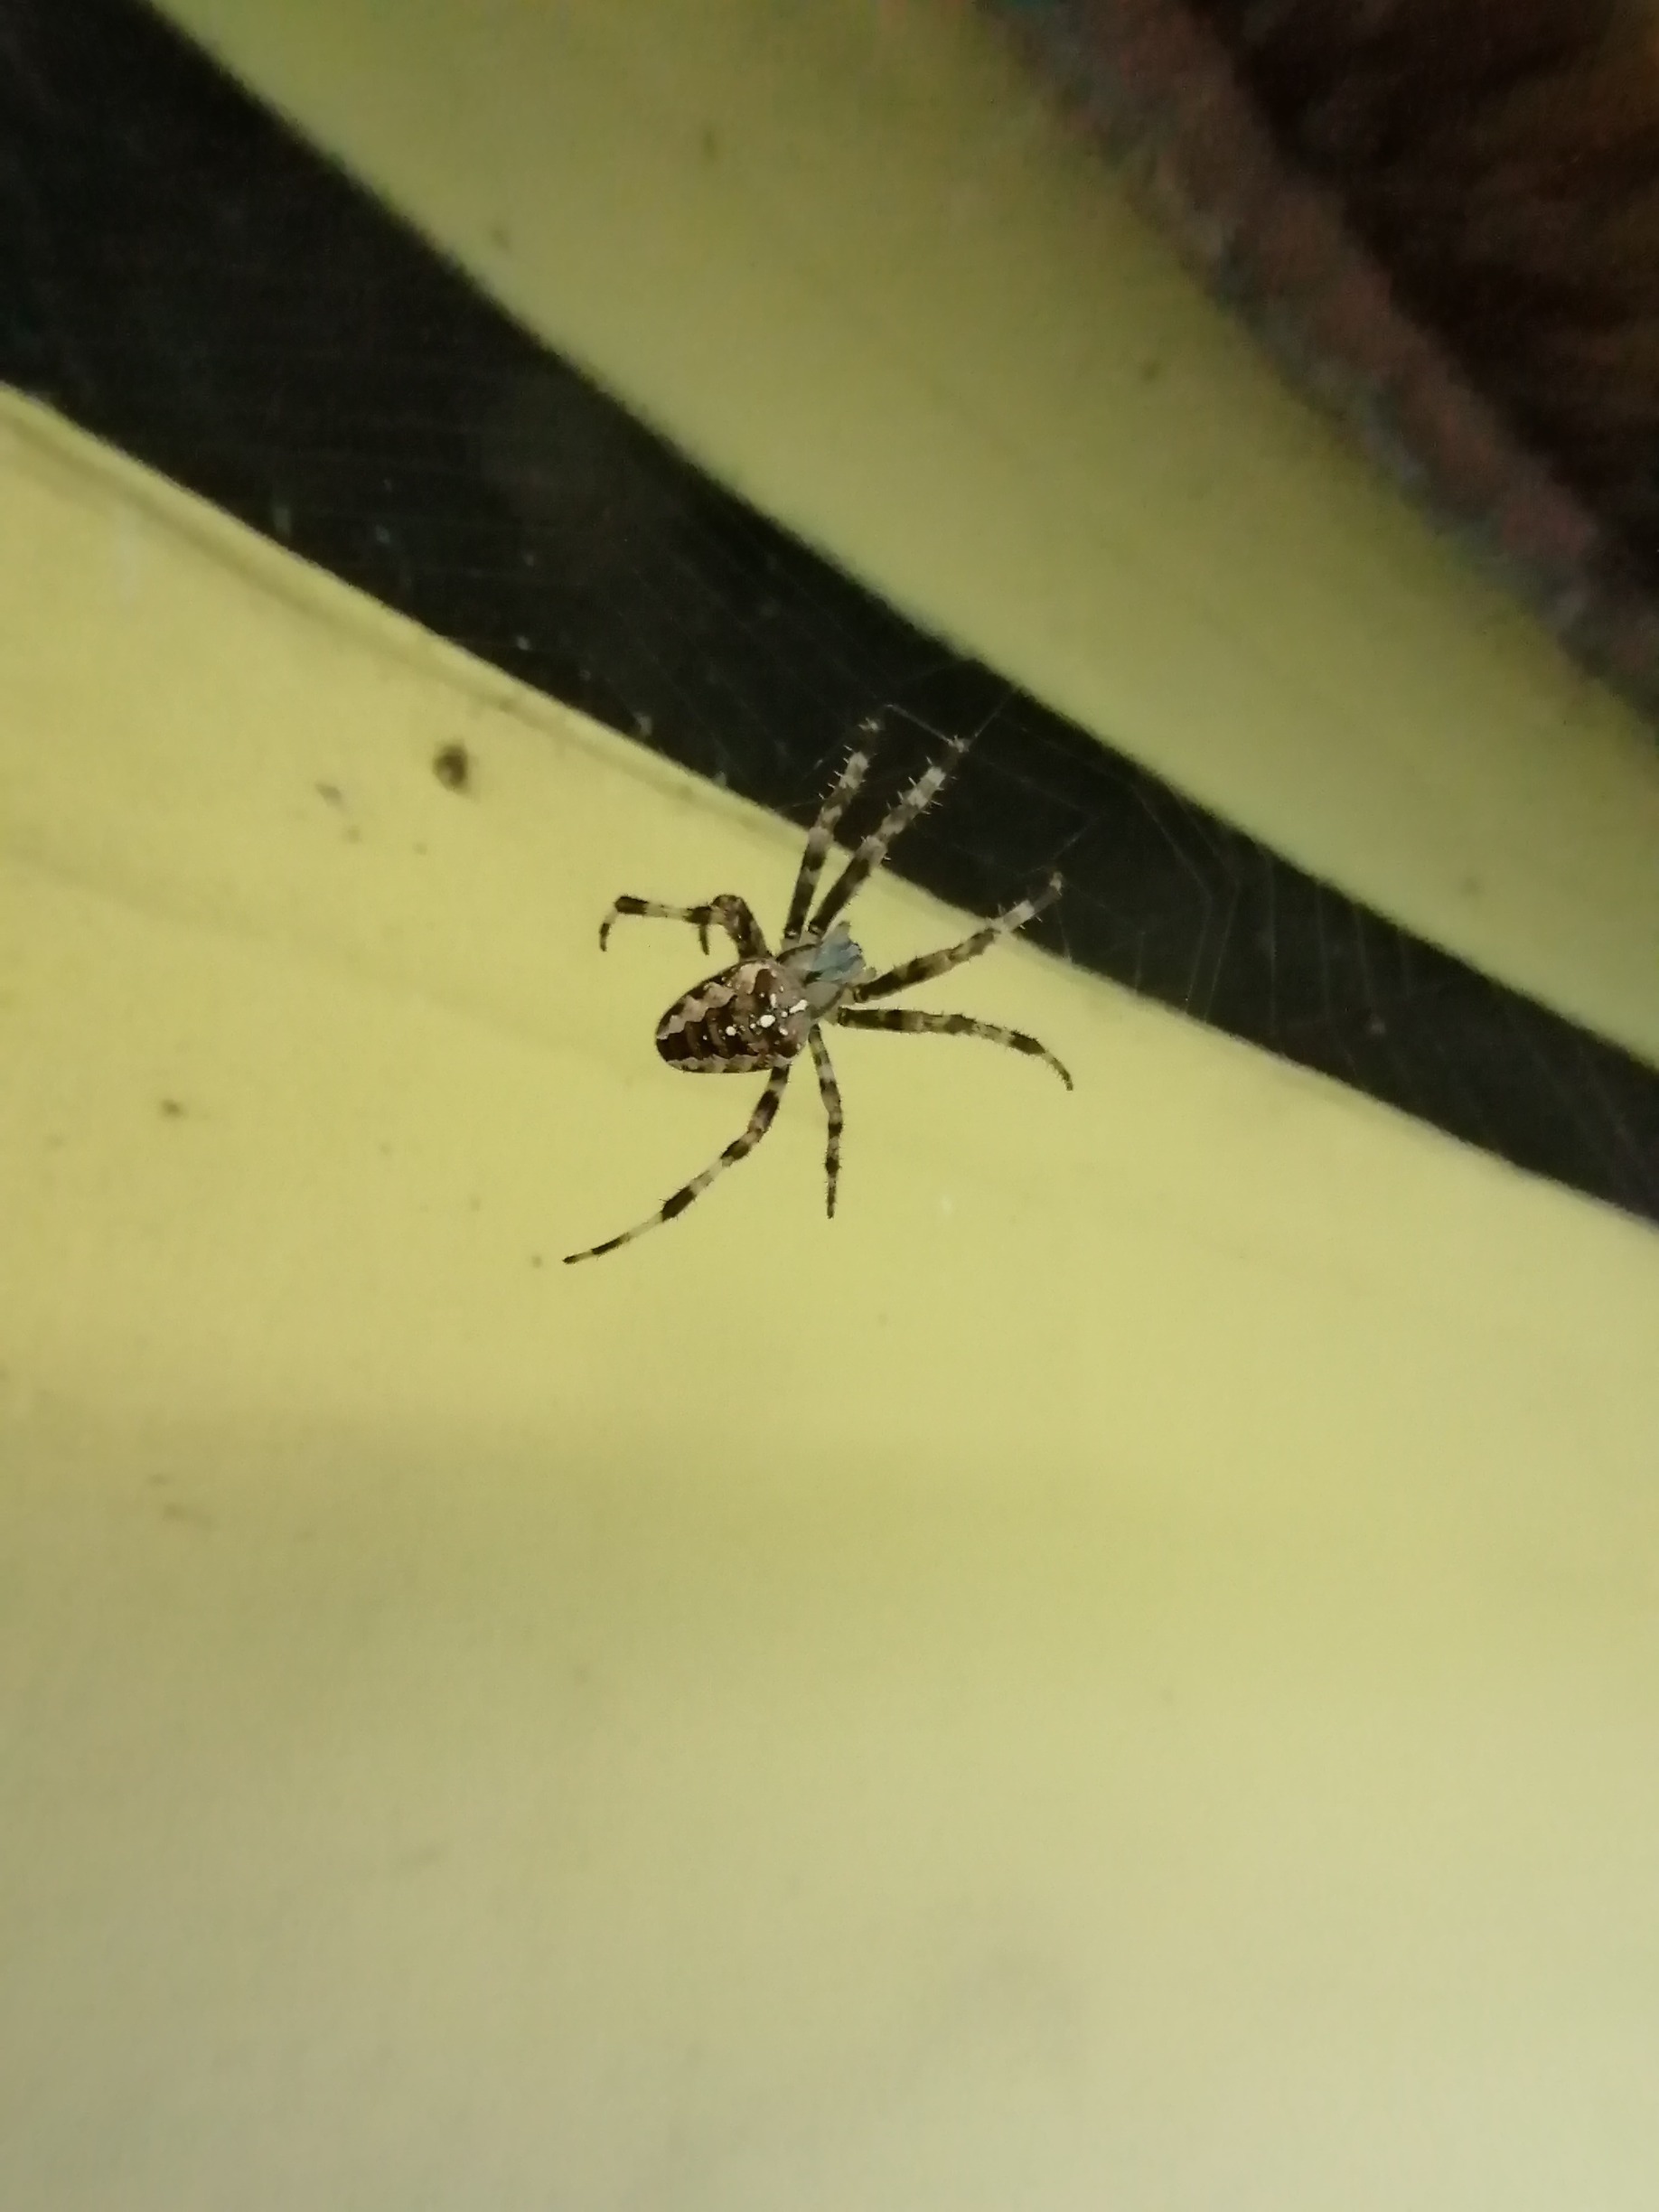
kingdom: Animalia
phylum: Arthropoda
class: Arachnida
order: Araneae
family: Araneidae
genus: Araneus
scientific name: Araneus diadematus
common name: Korsedderkop
